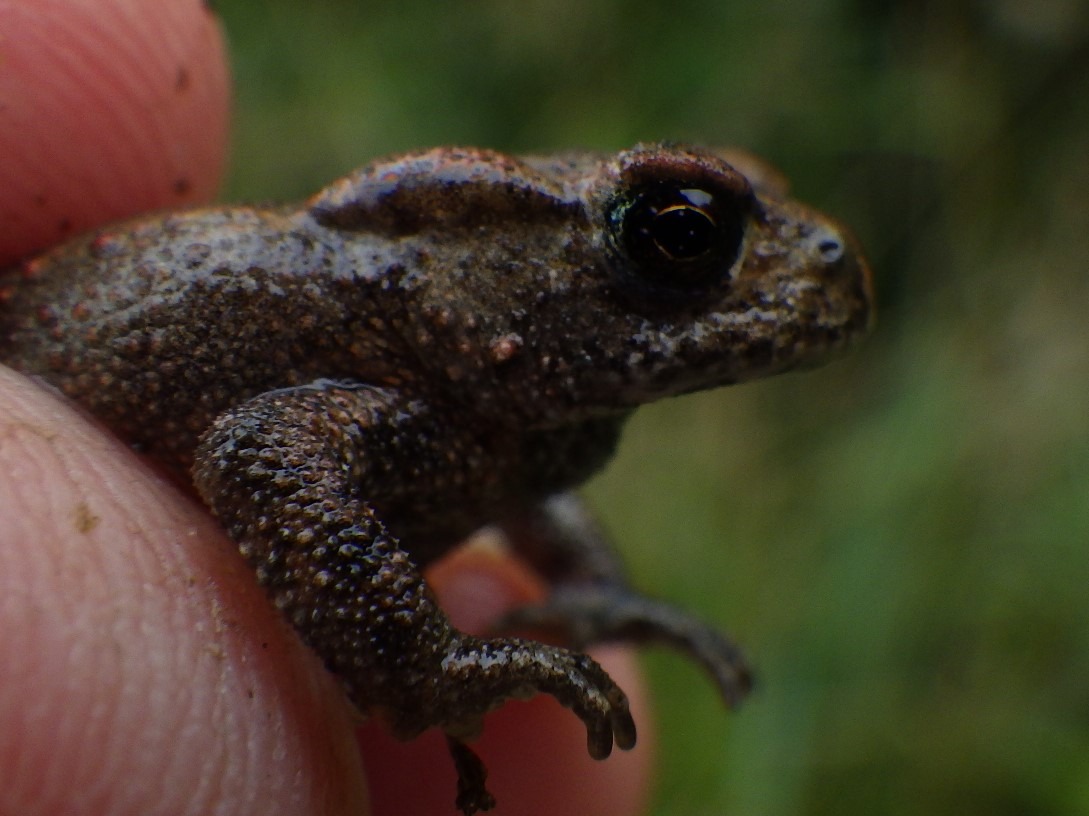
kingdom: Animalia
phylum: Chordata
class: Amphibia
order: Anura
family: Bufonidae
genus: Bufo
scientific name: Bufo bufo
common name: Skrubtudse
